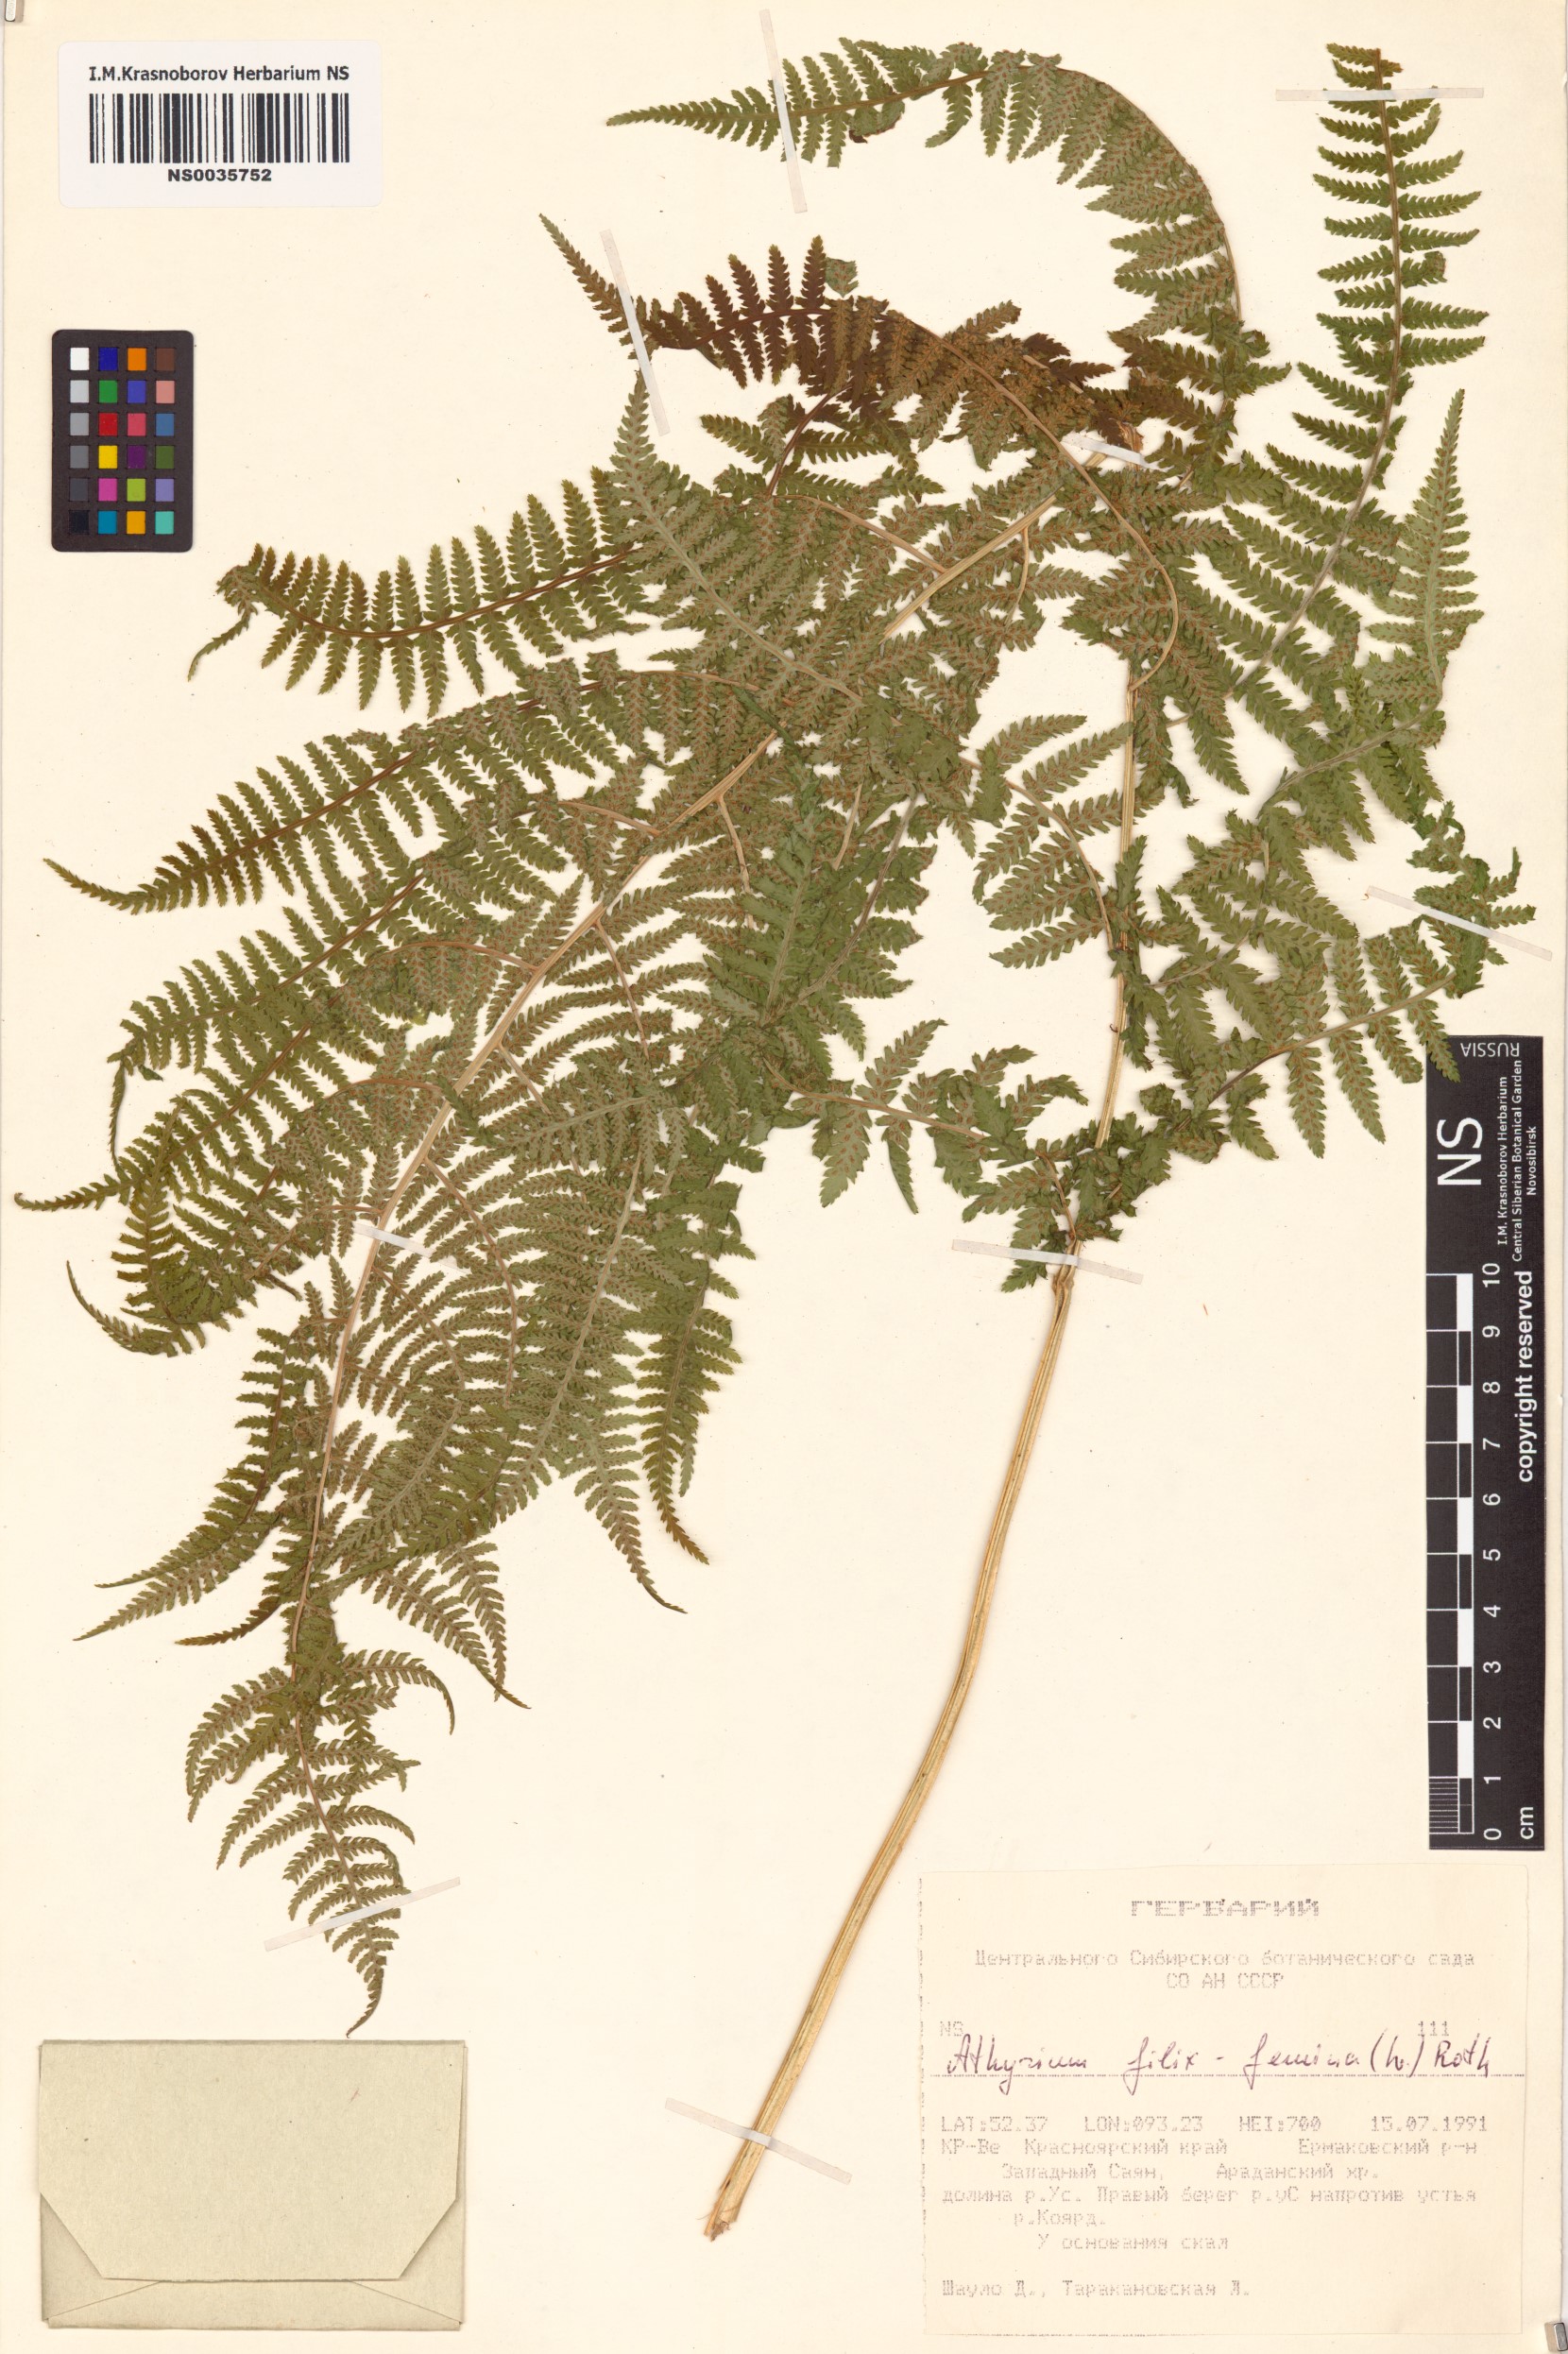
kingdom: Plantae
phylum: Tracheophyta
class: Polypodiopsida
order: Polypodiales
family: Athyriaceae
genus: Athyrium
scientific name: Athyrium filix-femina
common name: Lady fern
